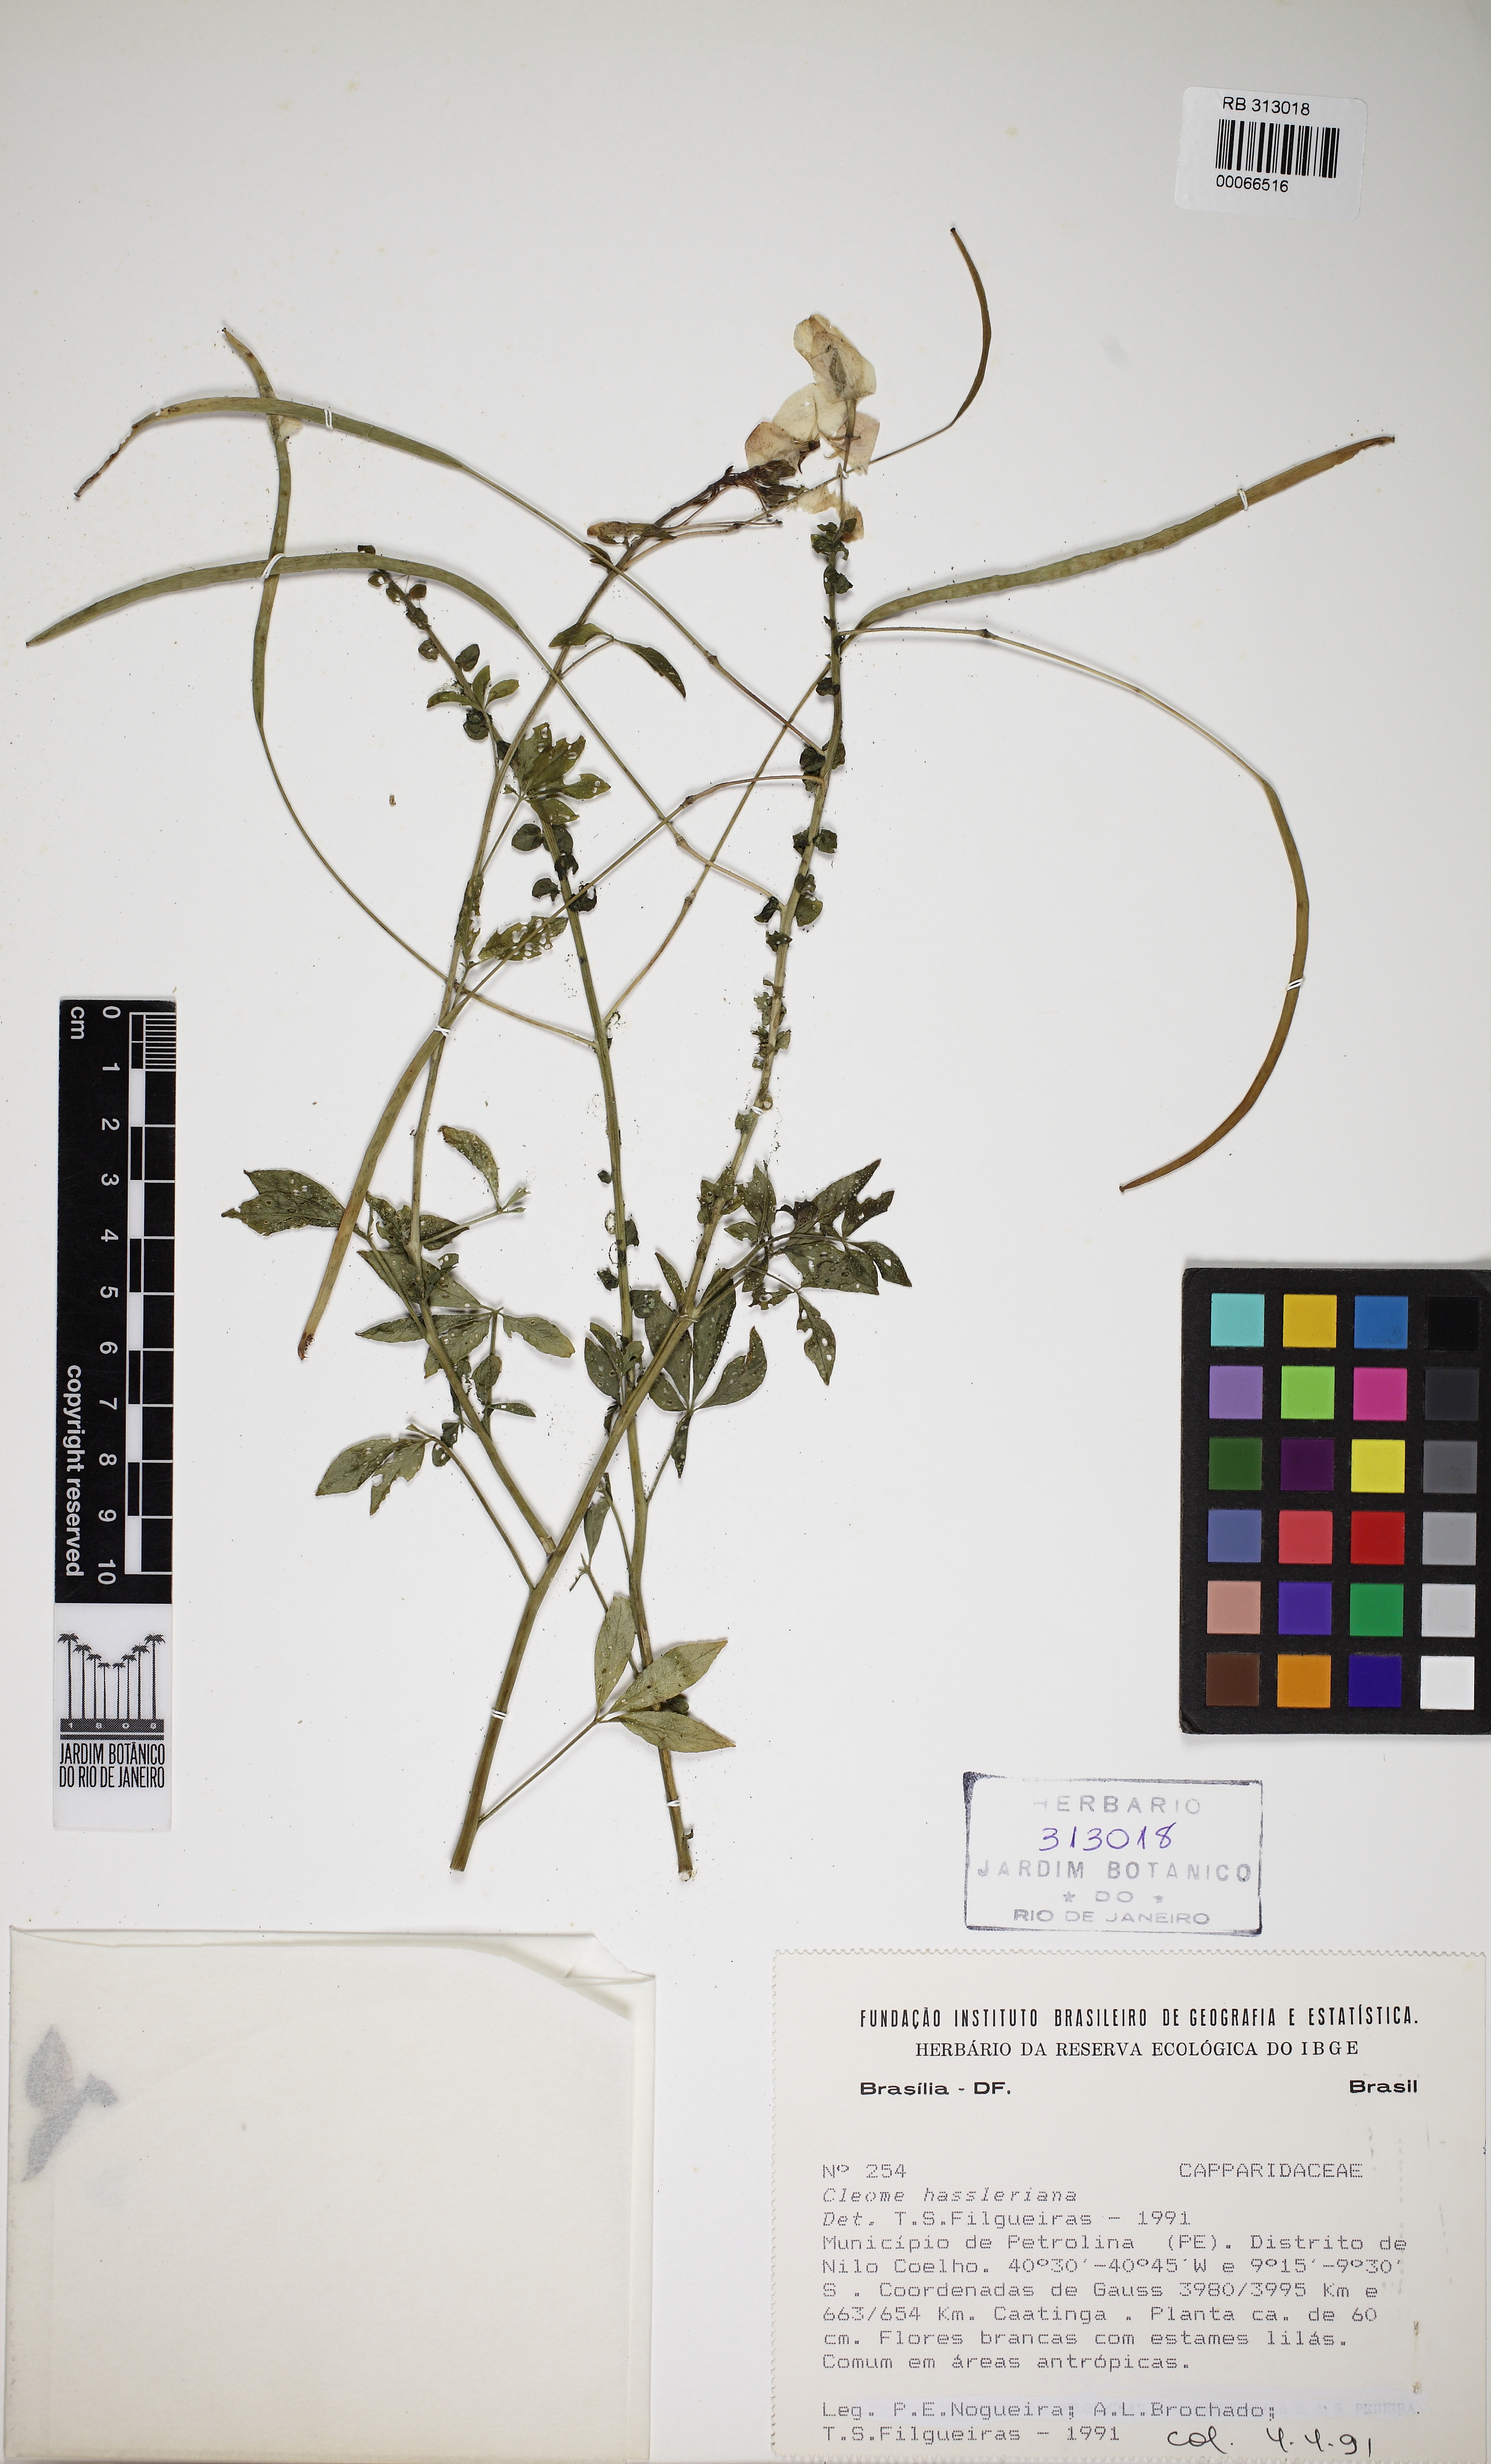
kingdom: Plantae
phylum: Tracheophyta
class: Magnoliopsida
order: Brassicales
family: Cleomaceae
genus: Tarenaya
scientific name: Tarenaya
